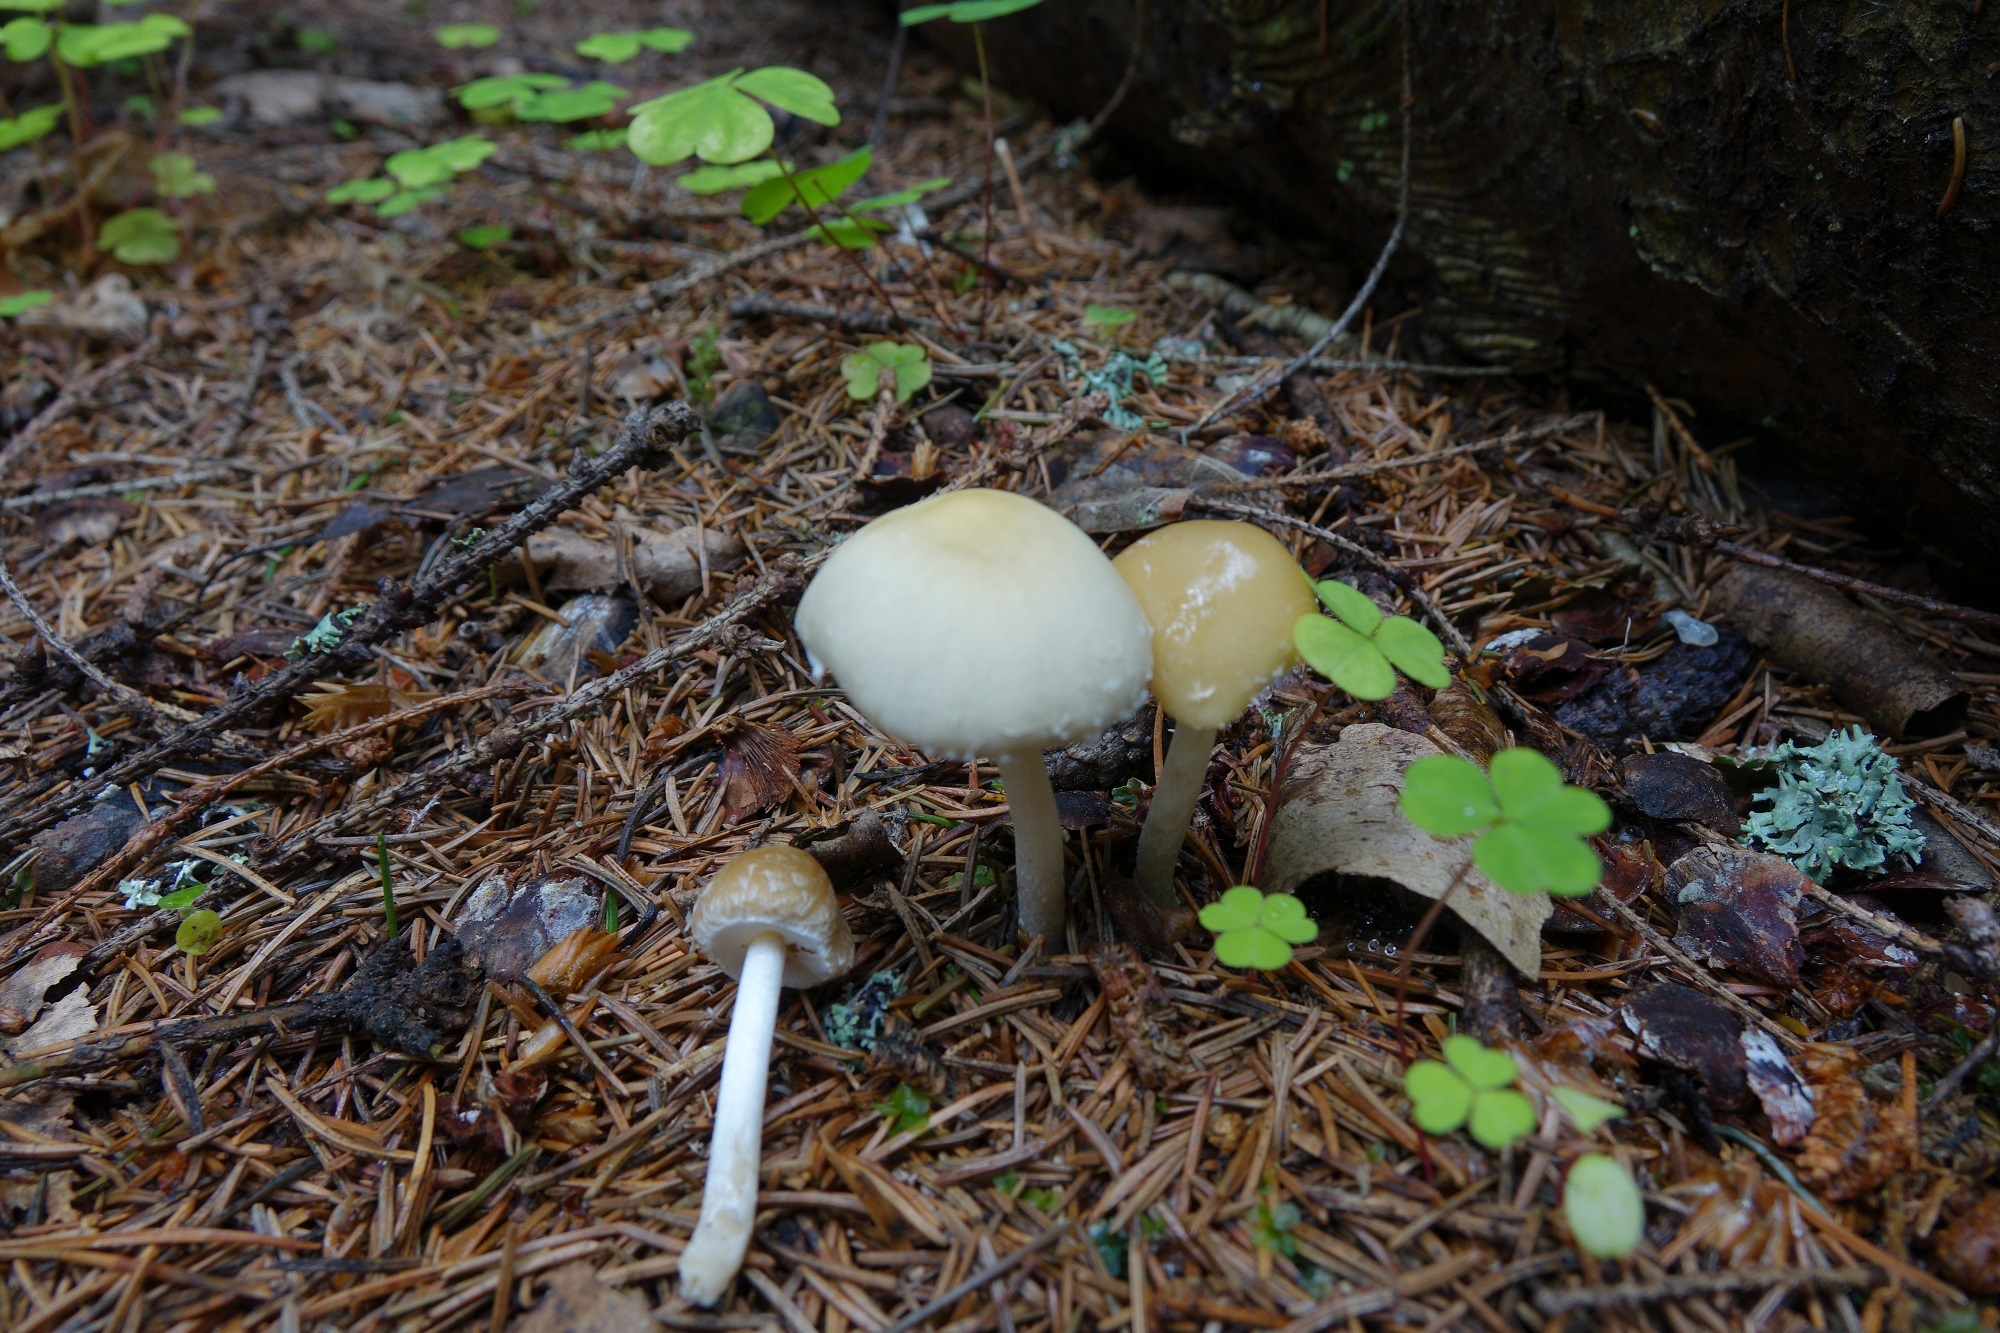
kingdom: Fungi
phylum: Basidiomycota
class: Agaricomycetes
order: Agaricales
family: Psathyrellaceae
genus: Candolleomyces
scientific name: Candolleomyces candolleanus
